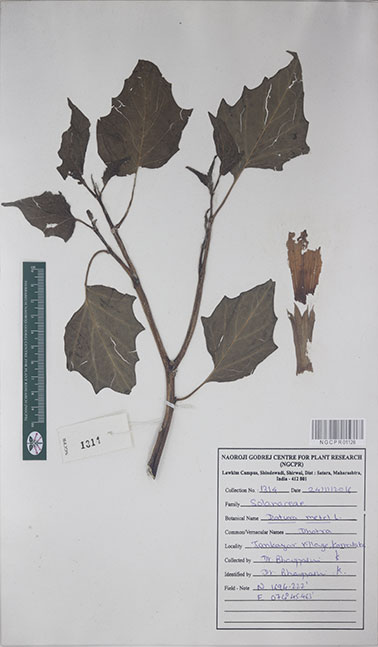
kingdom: Plantae
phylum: Tracheophyta
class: Magnoliopsida
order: Solanales
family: Solanaceae
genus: Datura
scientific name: Datura metel
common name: Jimsonweed
